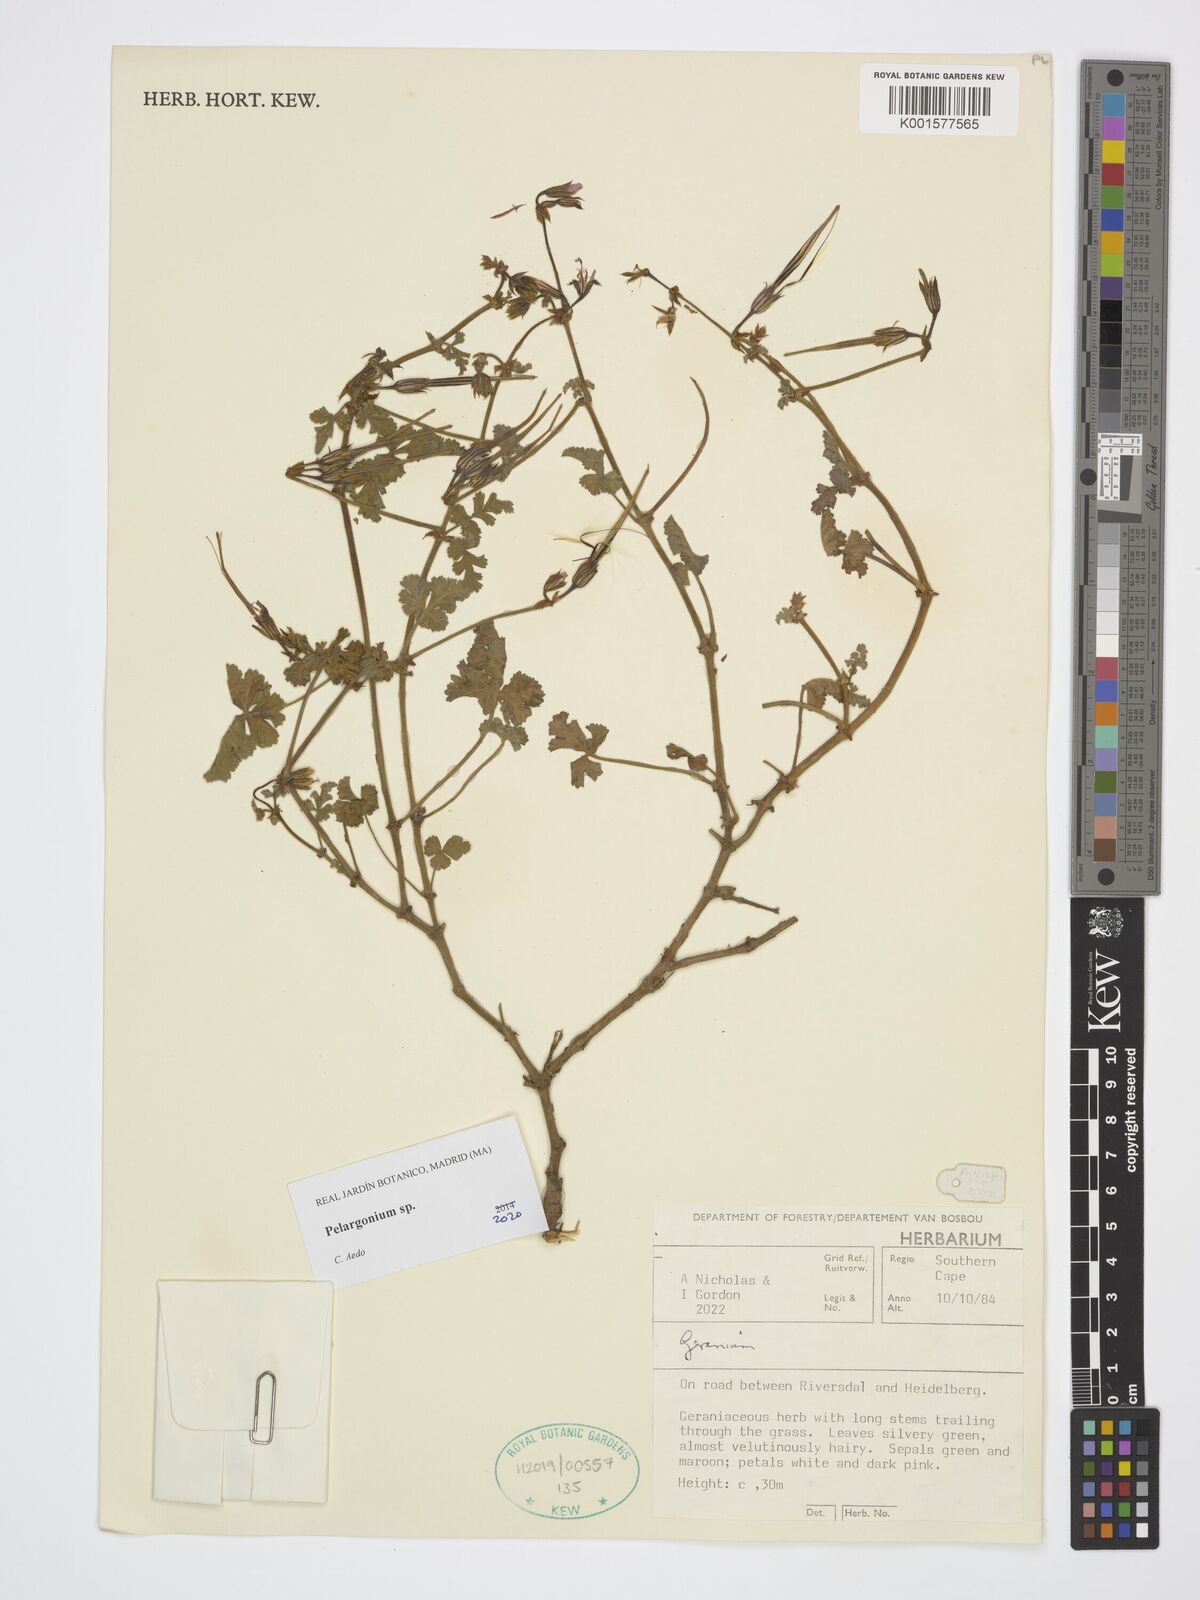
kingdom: Plantae
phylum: Tracheophyta
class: Magnoliopsida
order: Geraniales
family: Geraniaceae
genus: Pelargonium
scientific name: Pelargonium
